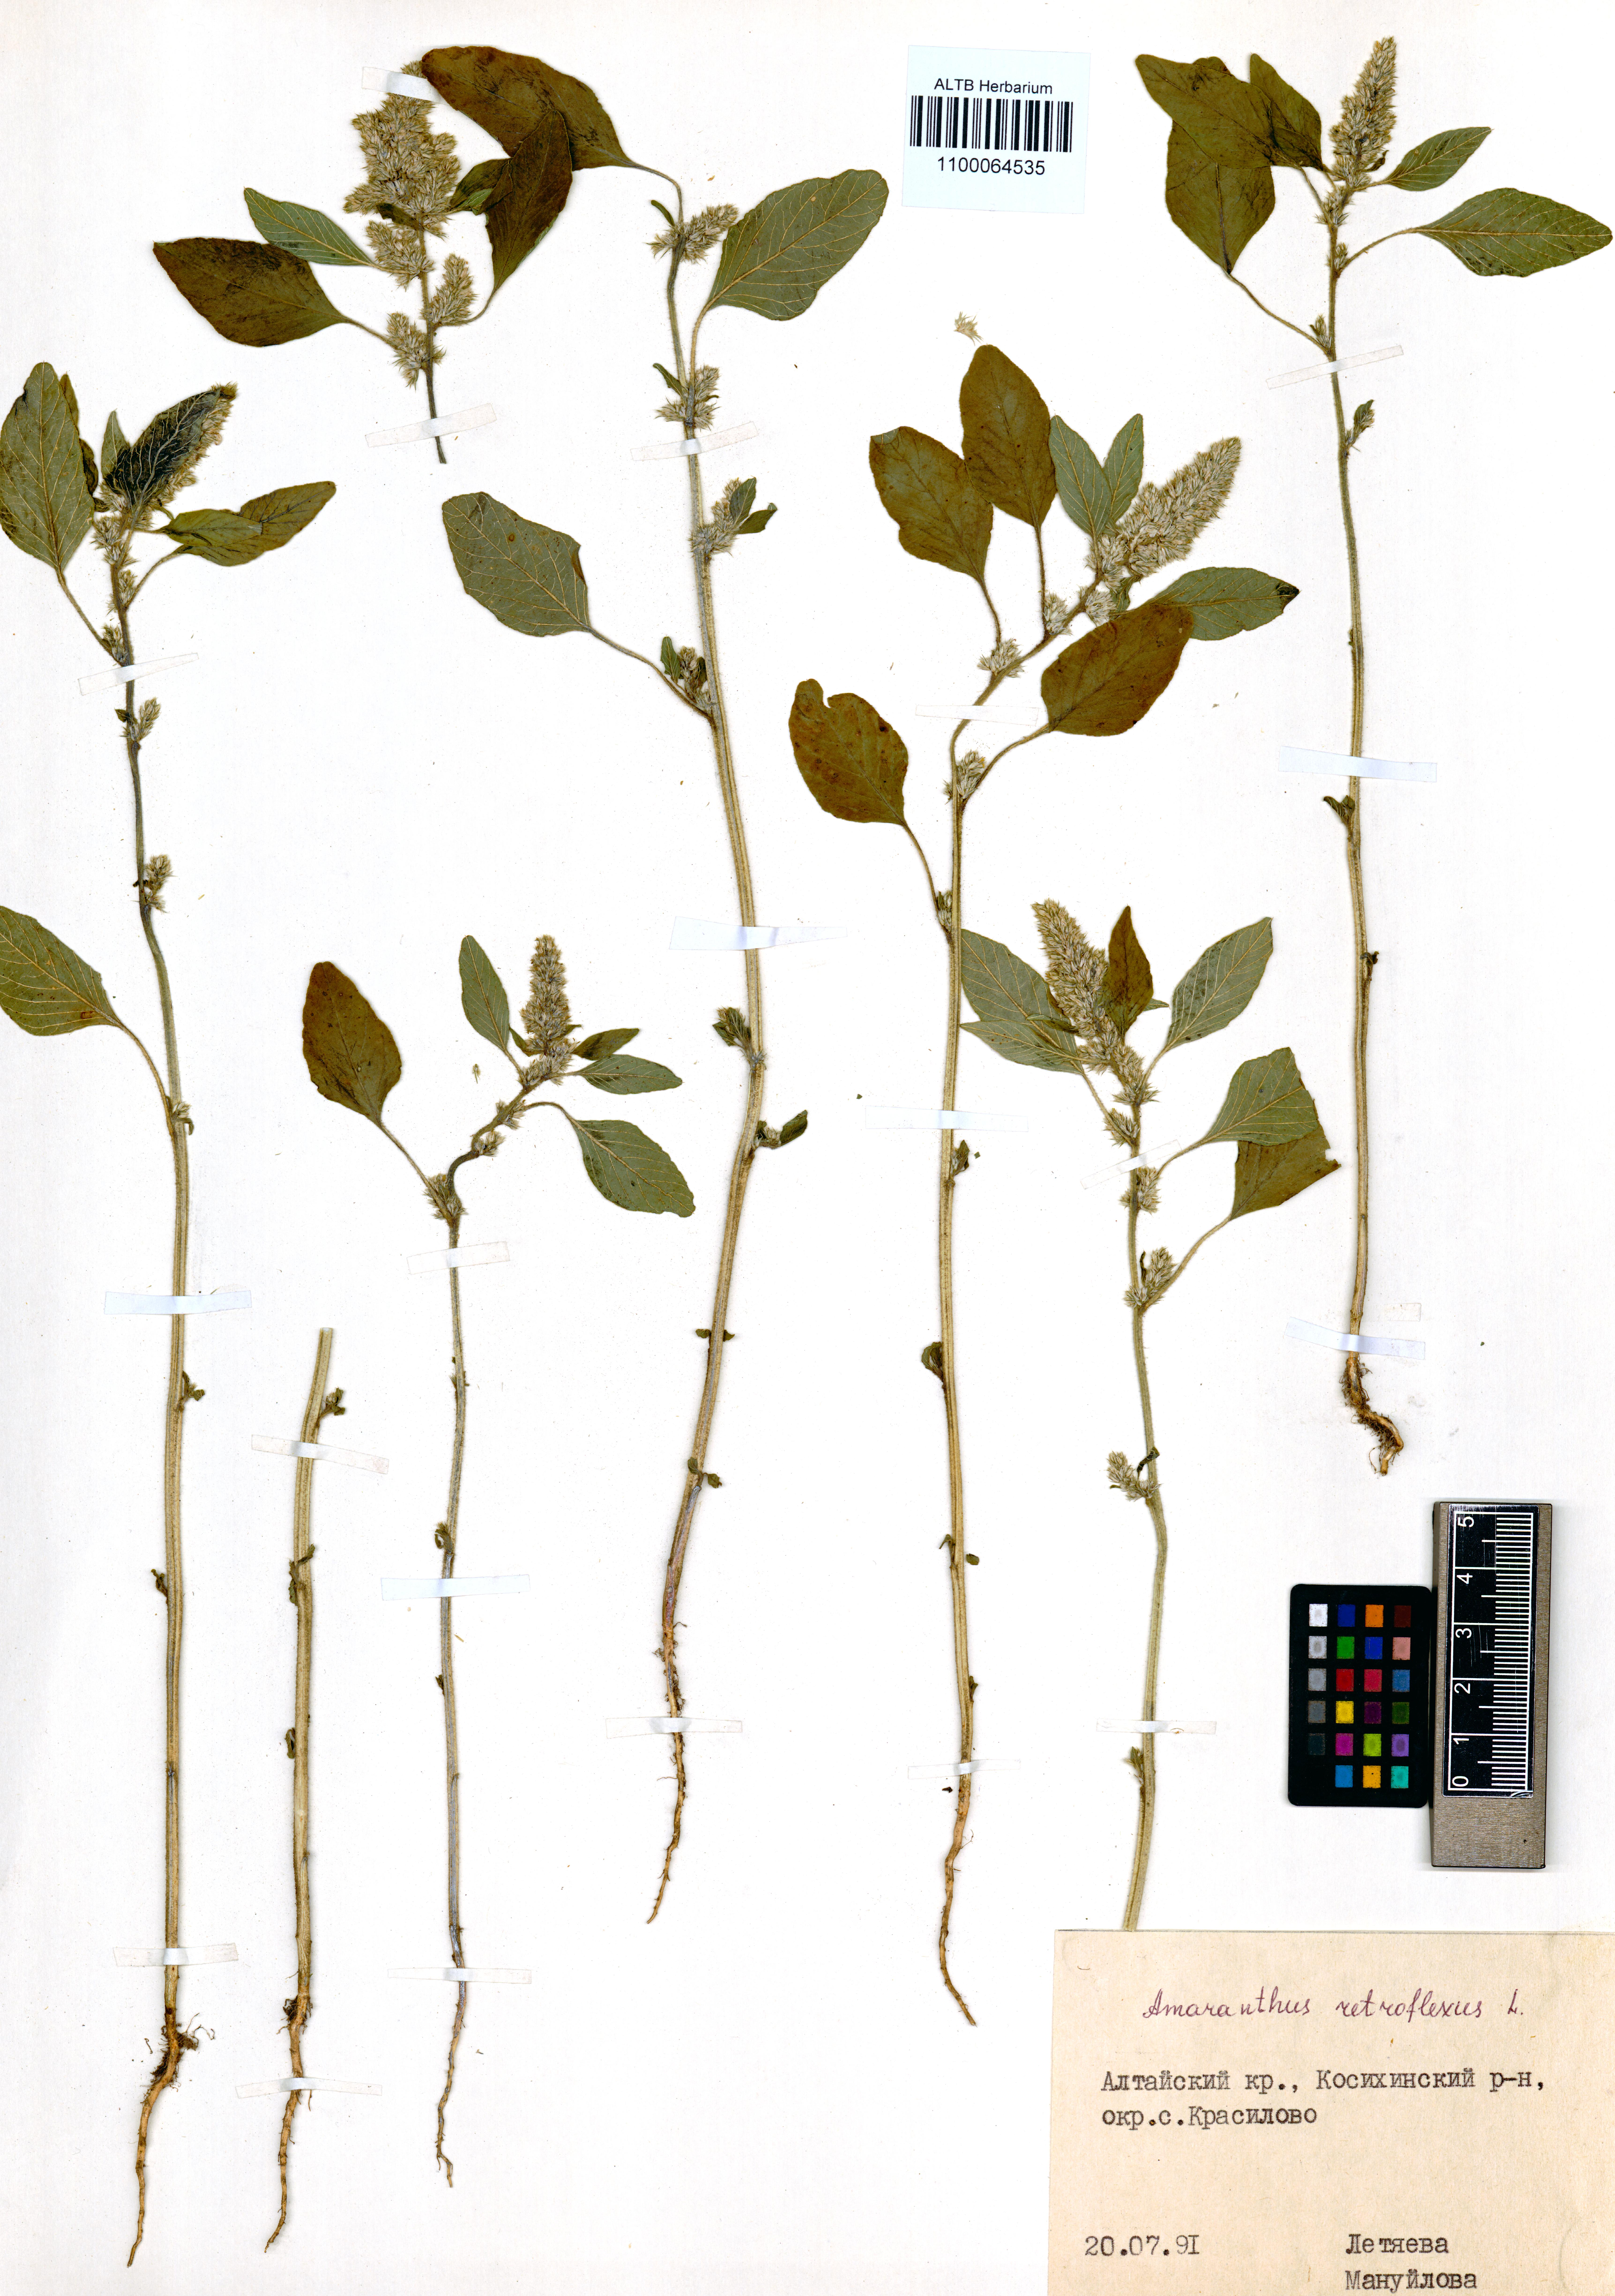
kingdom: Plantae
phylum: Tracheophyta
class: Magnoliopsida
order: Caryophyllales
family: Amaranthaceae
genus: Amaranthus
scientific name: Amaranthus retroflexus
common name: Redroot amaranth
